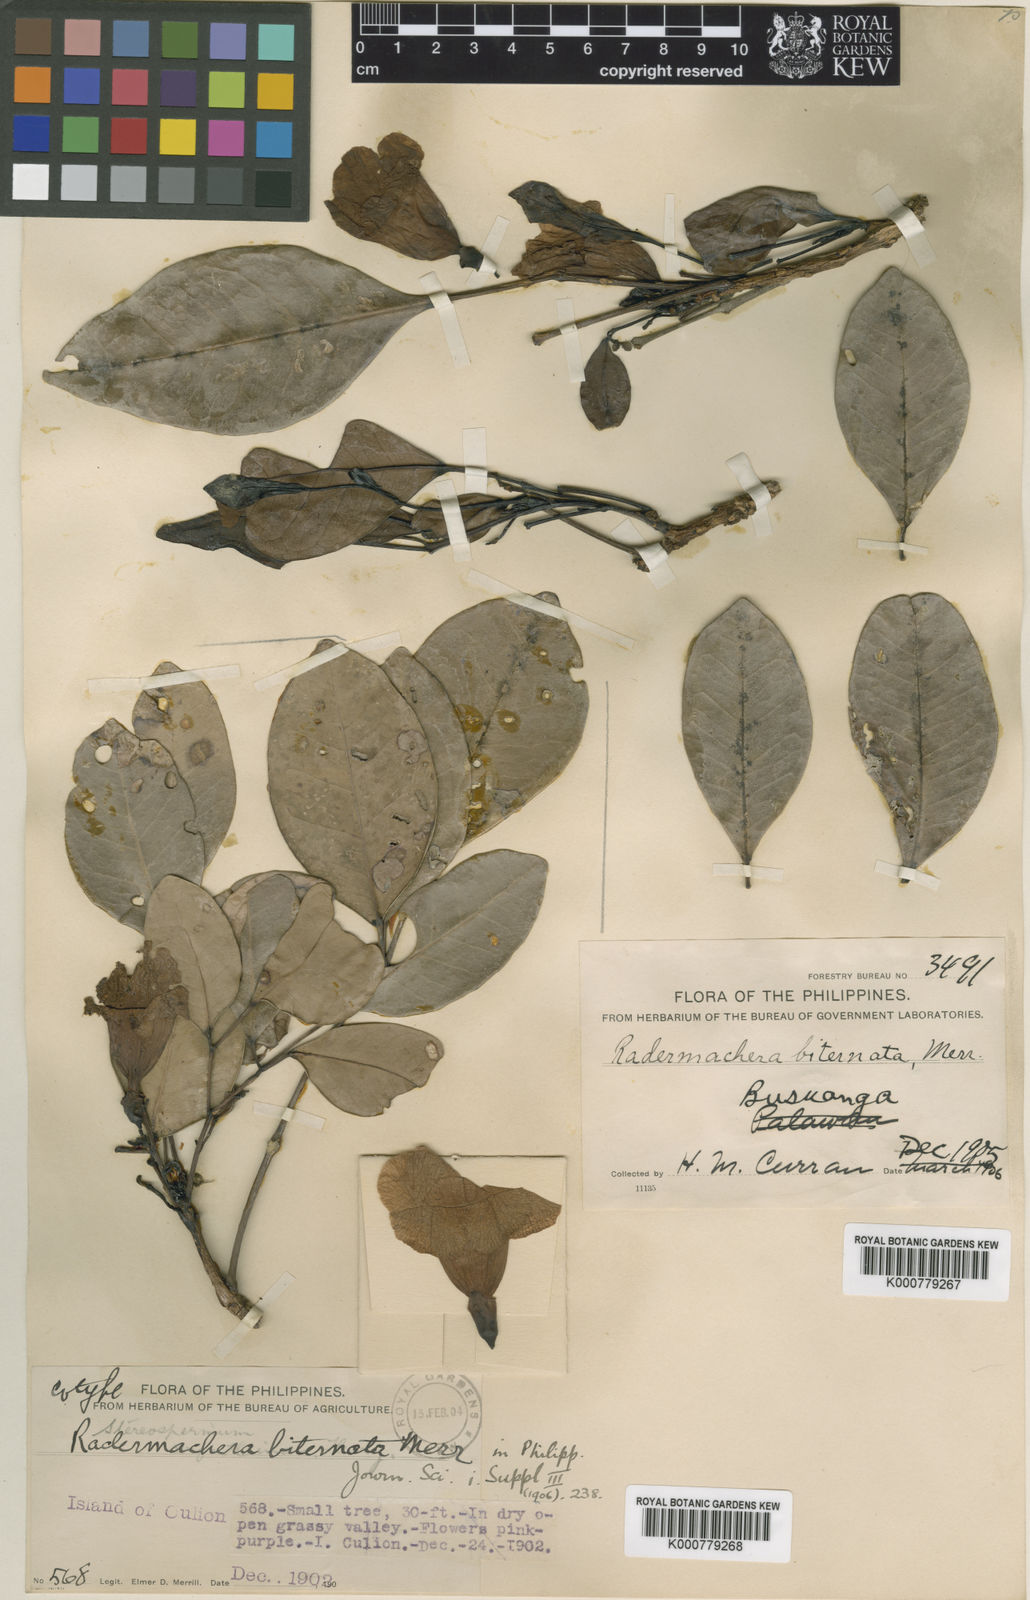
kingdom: Plantae
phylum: Tracheophyta
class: Magnoliopsida
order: Lamiales
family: Bignoniaceae
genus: Radermachera
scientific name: Radermachera gigantea
